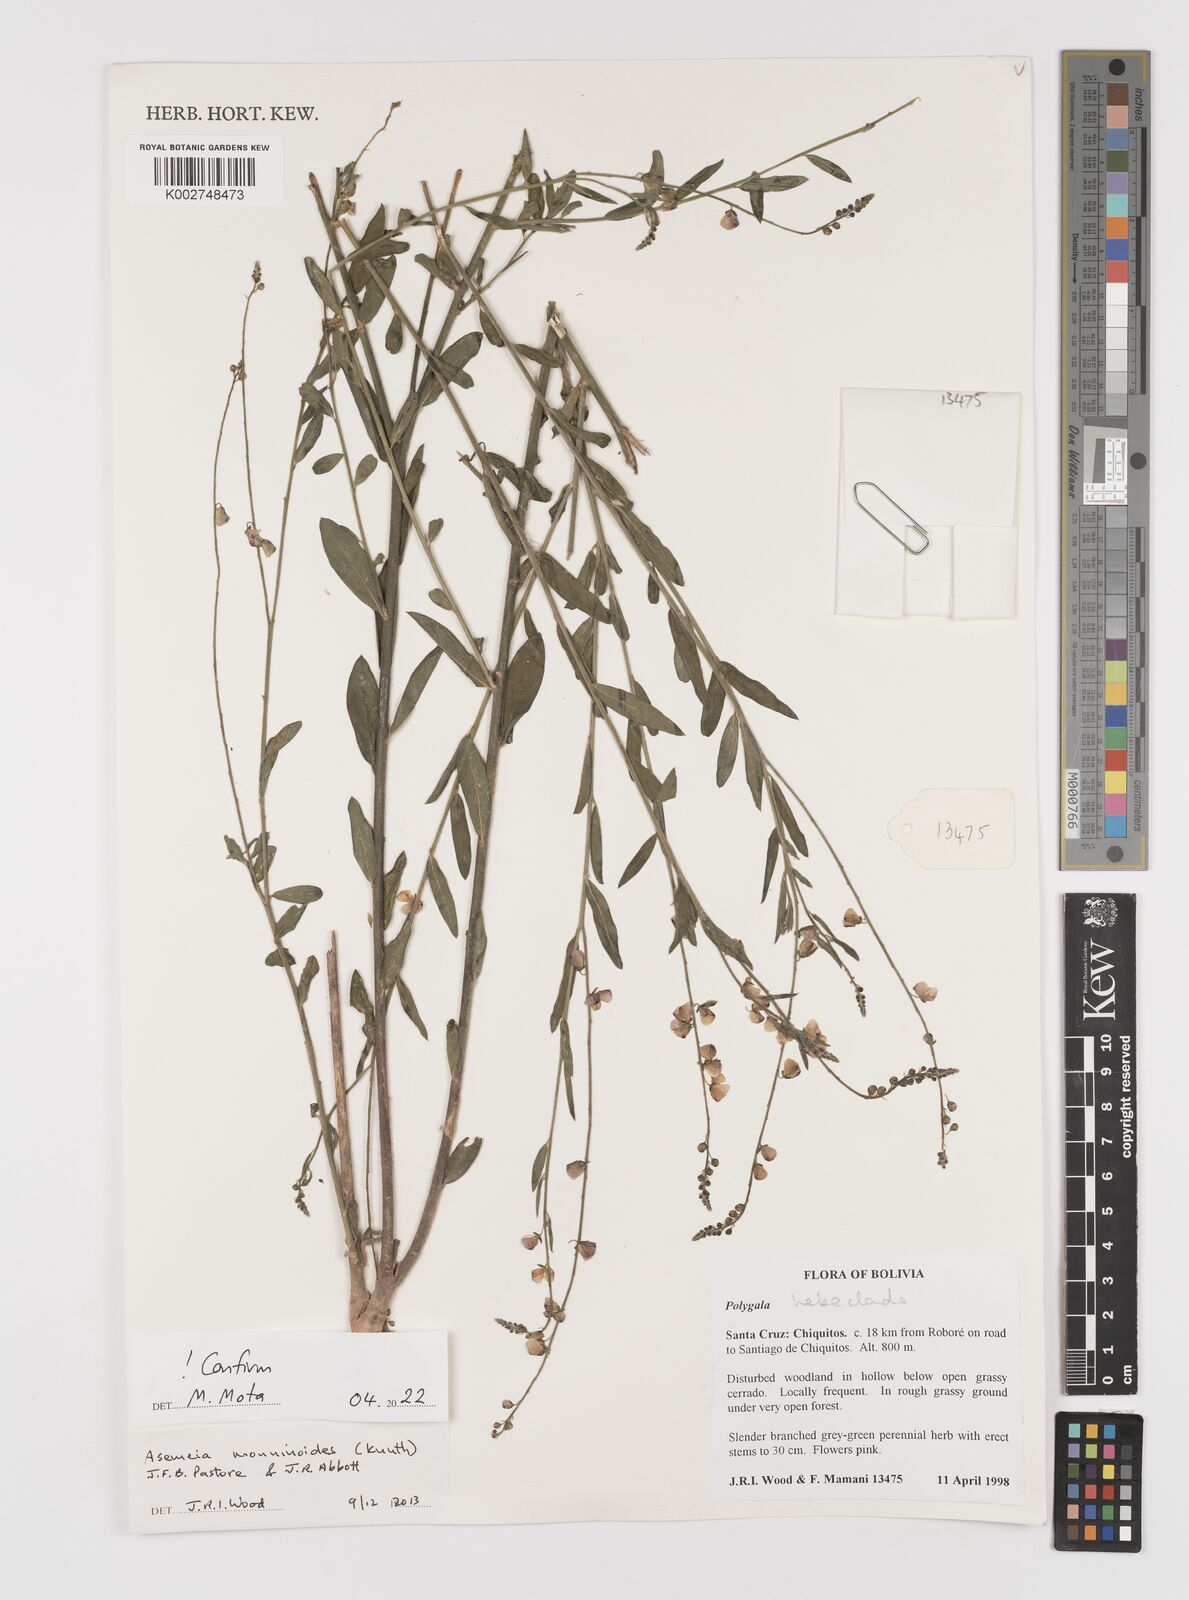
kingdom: Plantae
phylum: Tracheophyta
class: Magnoliopsida
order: Fabales
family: Polygalaceae
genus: Asemeia
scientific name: Asemeia monninoides
